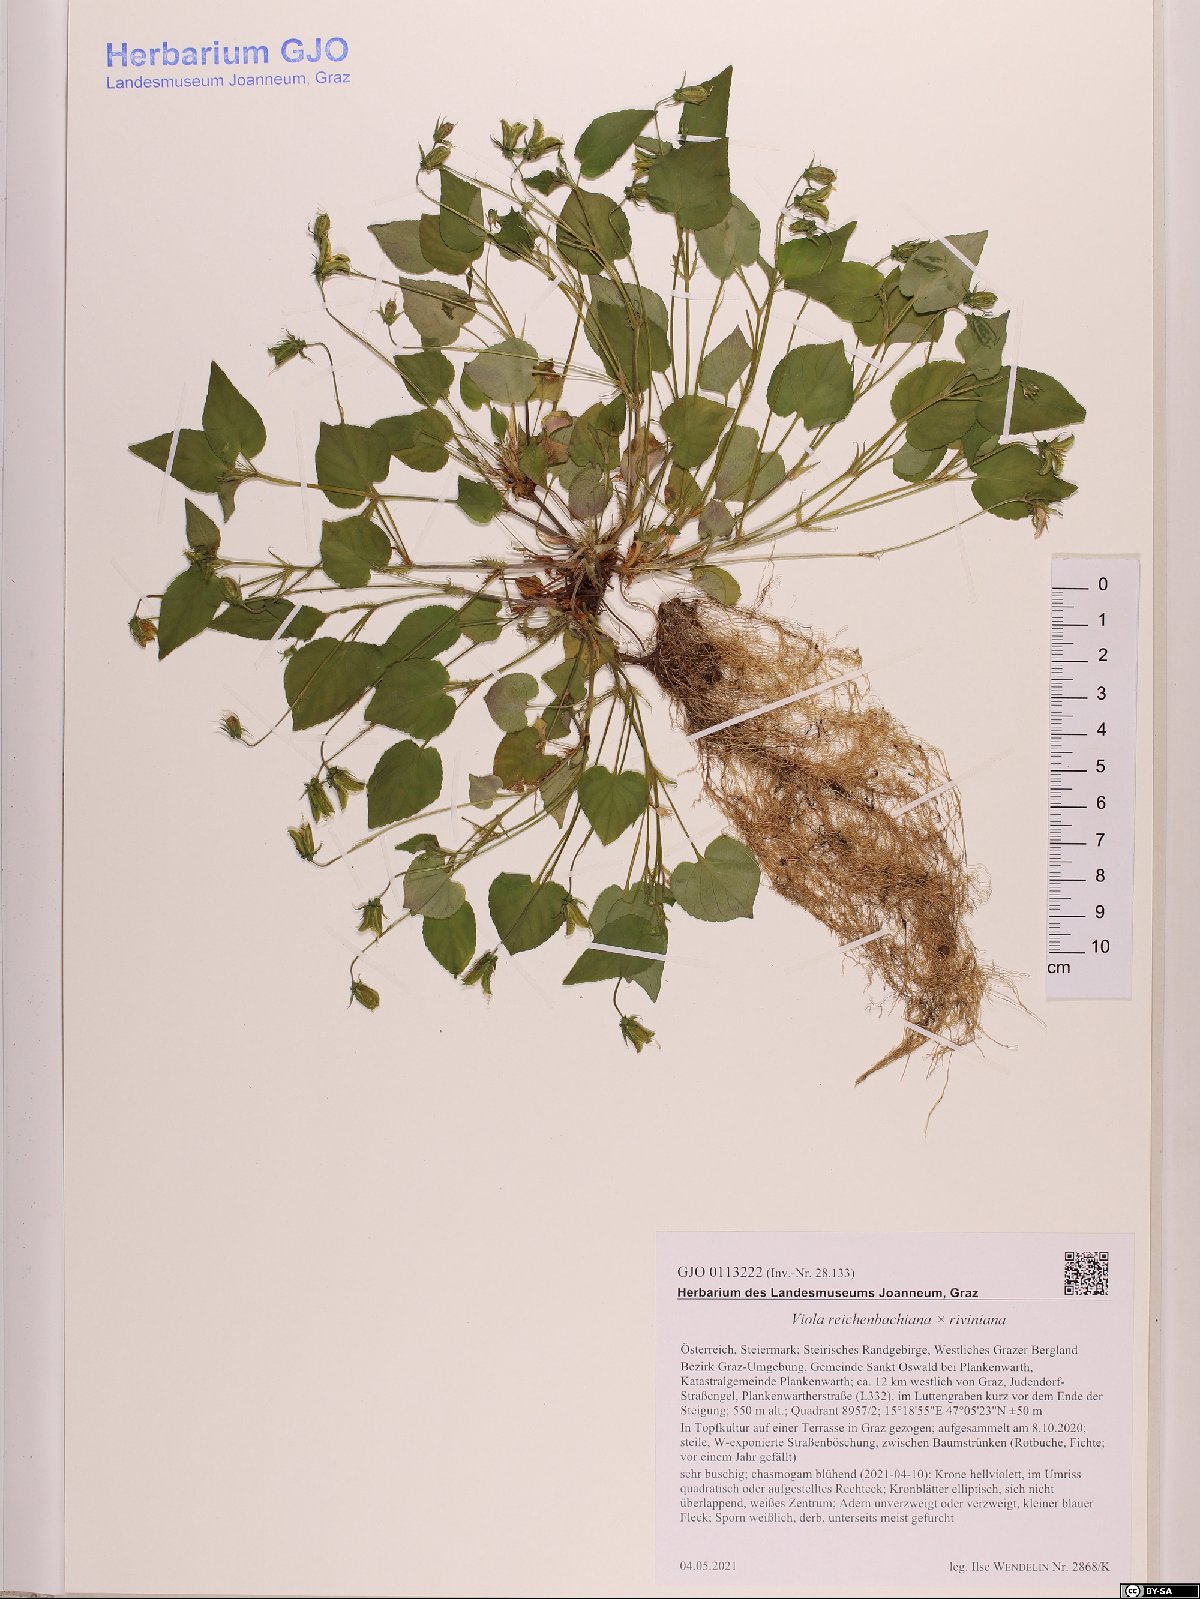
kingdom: Plantae
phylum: Tracheophyta
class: Magnoliopsida
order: Malpighiales
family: Violaceae
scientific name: Violaceae
